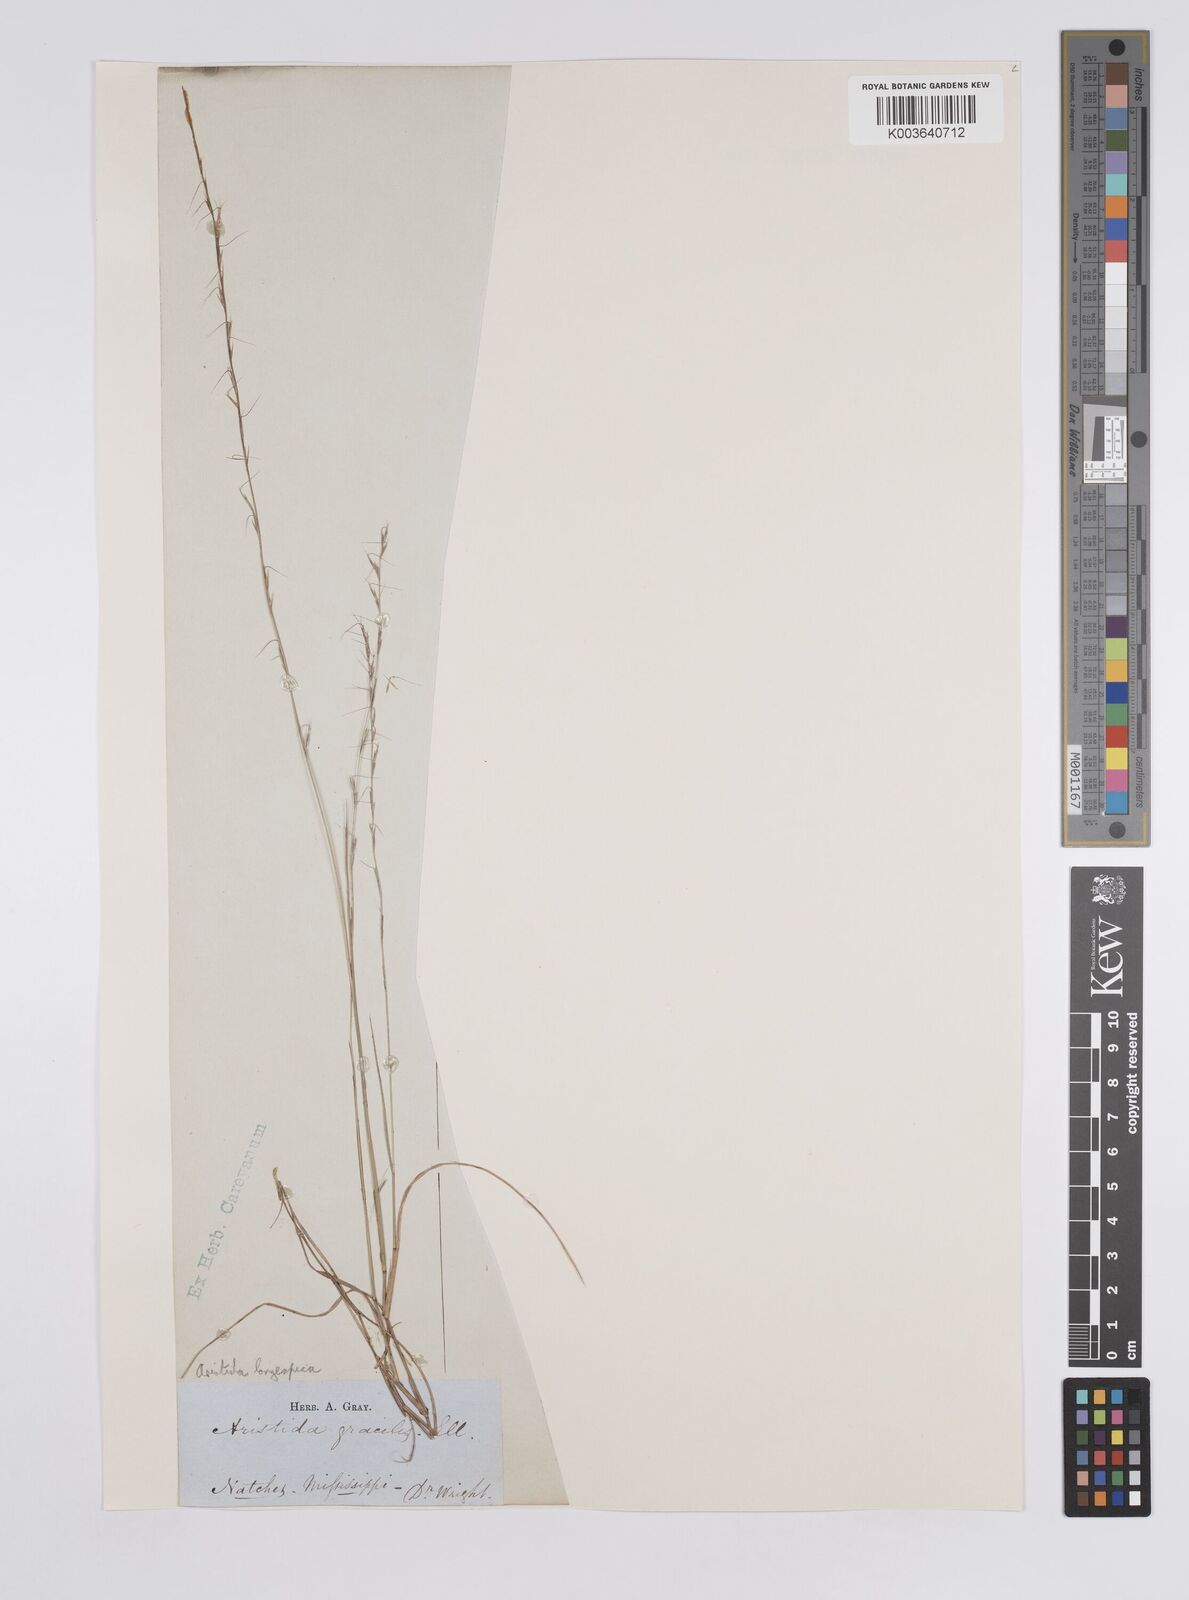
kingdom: Plantae
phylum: Tracheophyta
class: Liliopsida
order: Poales
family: Poaceae
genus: Aristida
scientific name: Aristida longespica
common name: Long-spiked triple-awned grass
